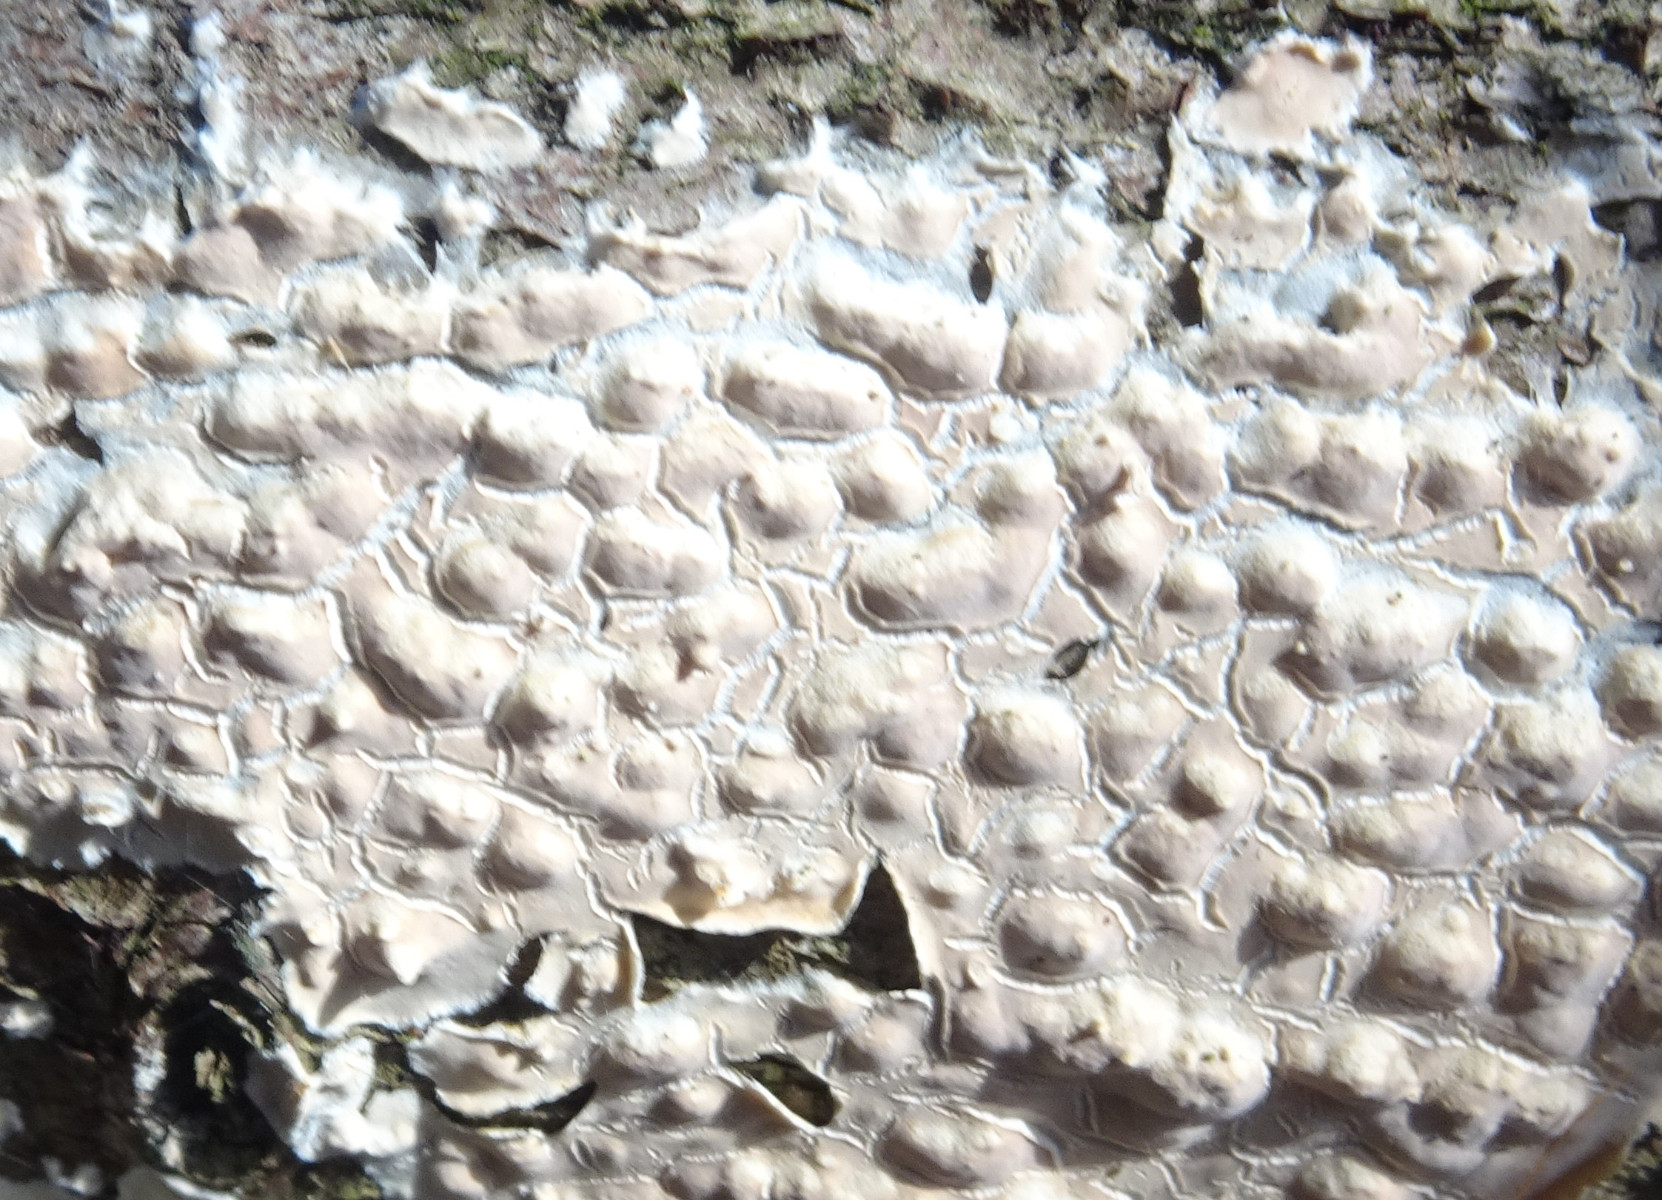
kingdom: Fungi
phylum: Basidiomycota
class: Agaricomycetes
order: Agaricales
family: Physalacriaceae
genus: Cylindrobasidium
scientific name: Cylindrobasidium evolvens
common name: sprækkehinde
